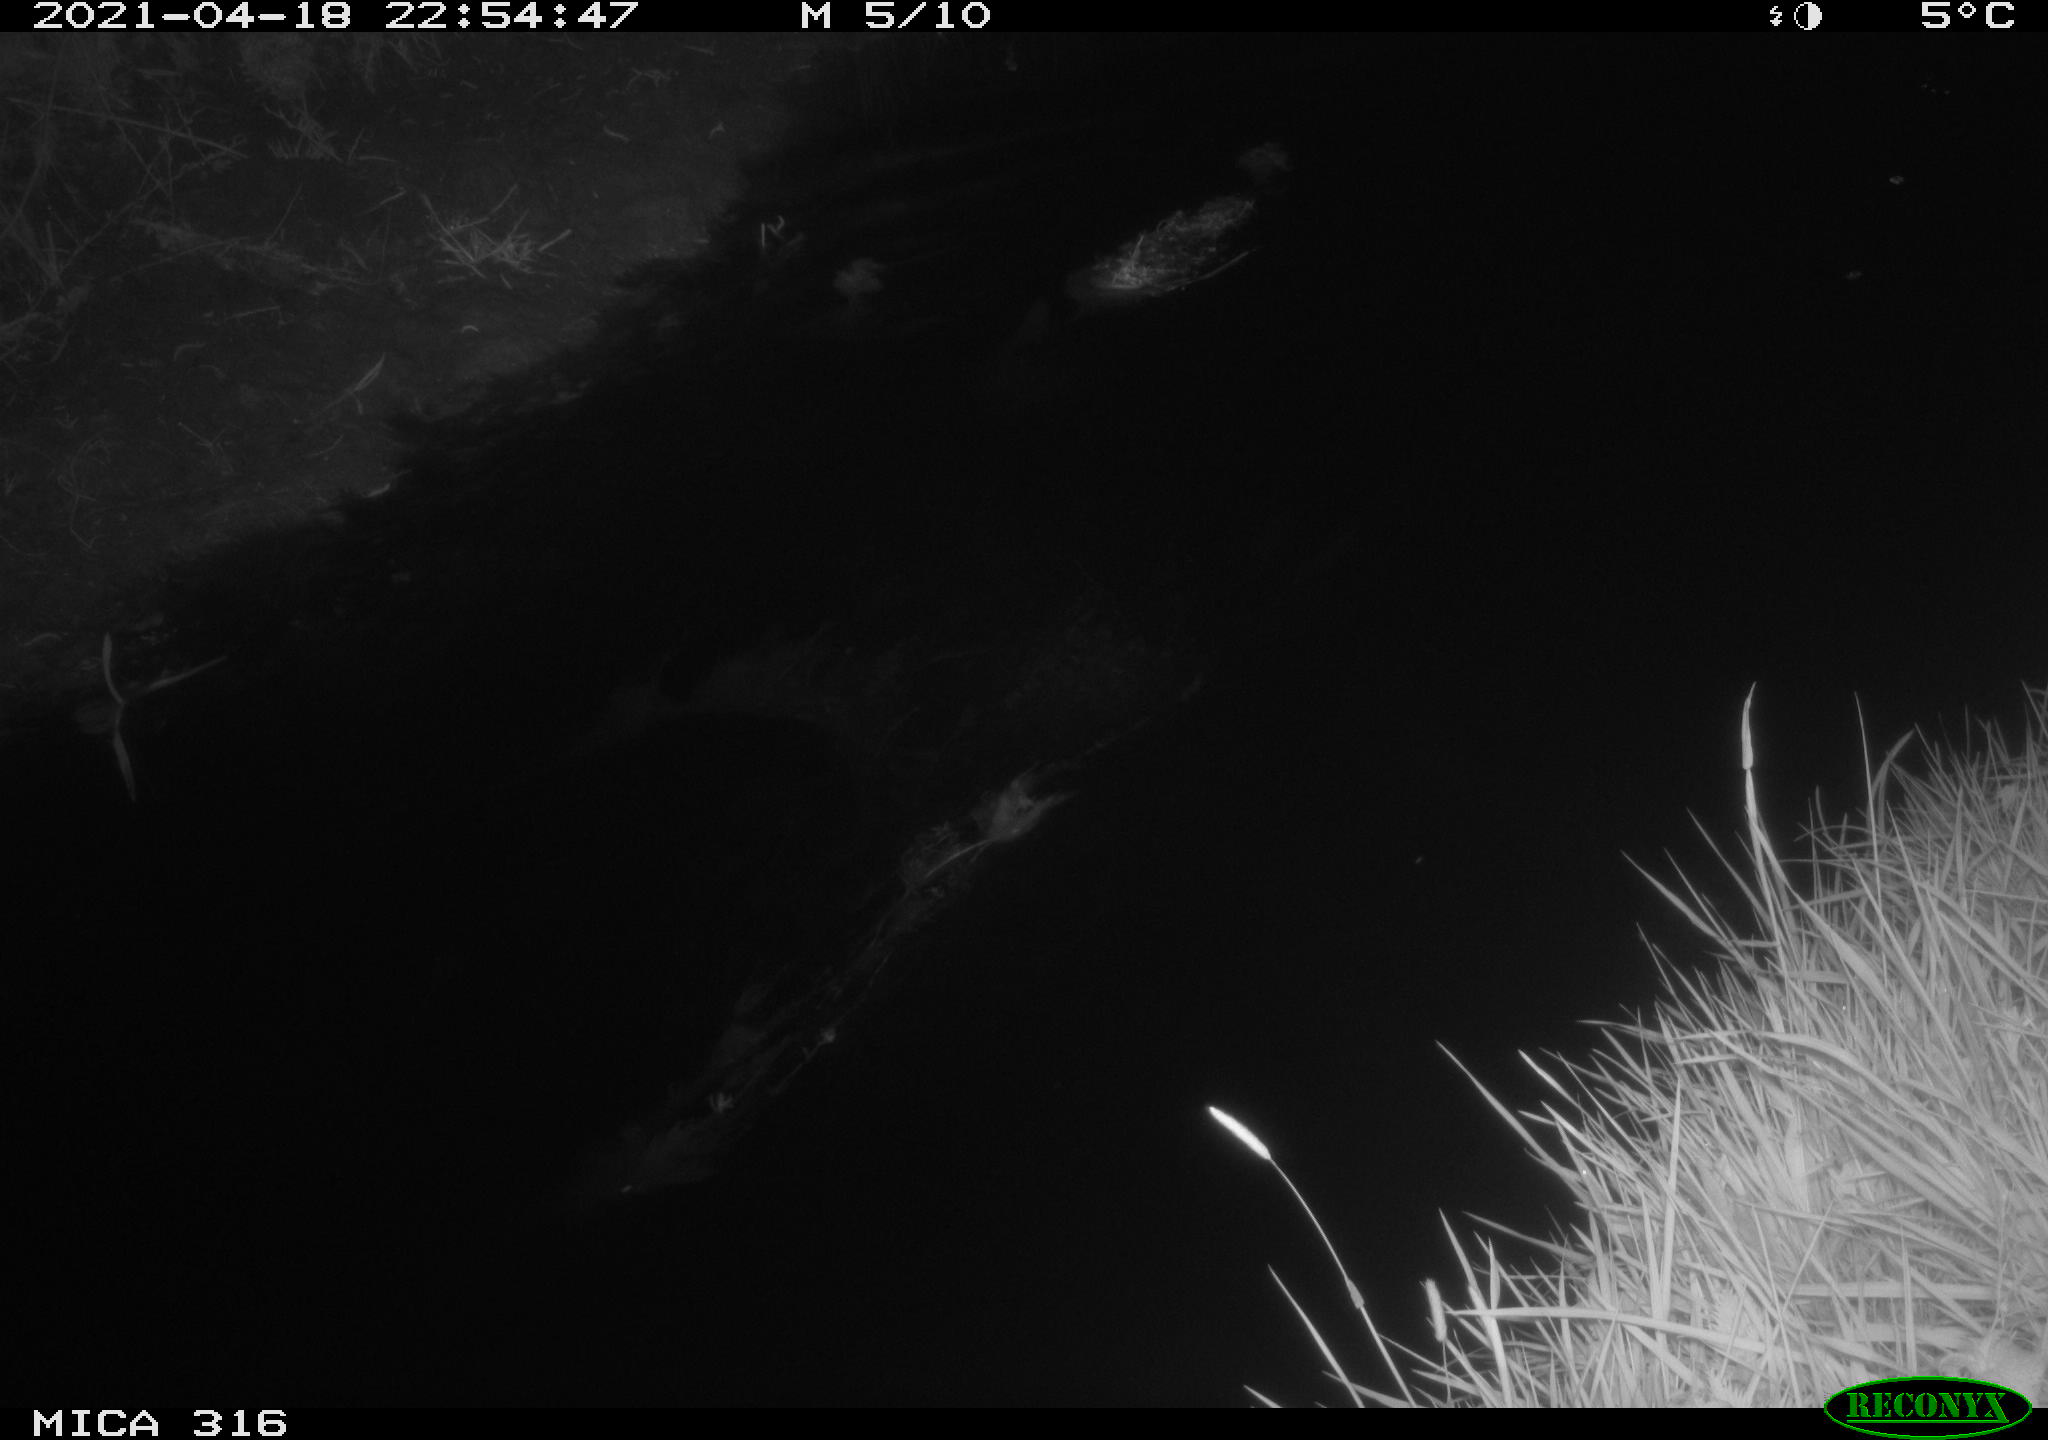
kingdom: Animalia
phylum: Chordata
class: Aves
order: Anseriformes
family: Anatidae
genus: Anas
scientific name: Anas platyrhynchos
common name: Mallard
